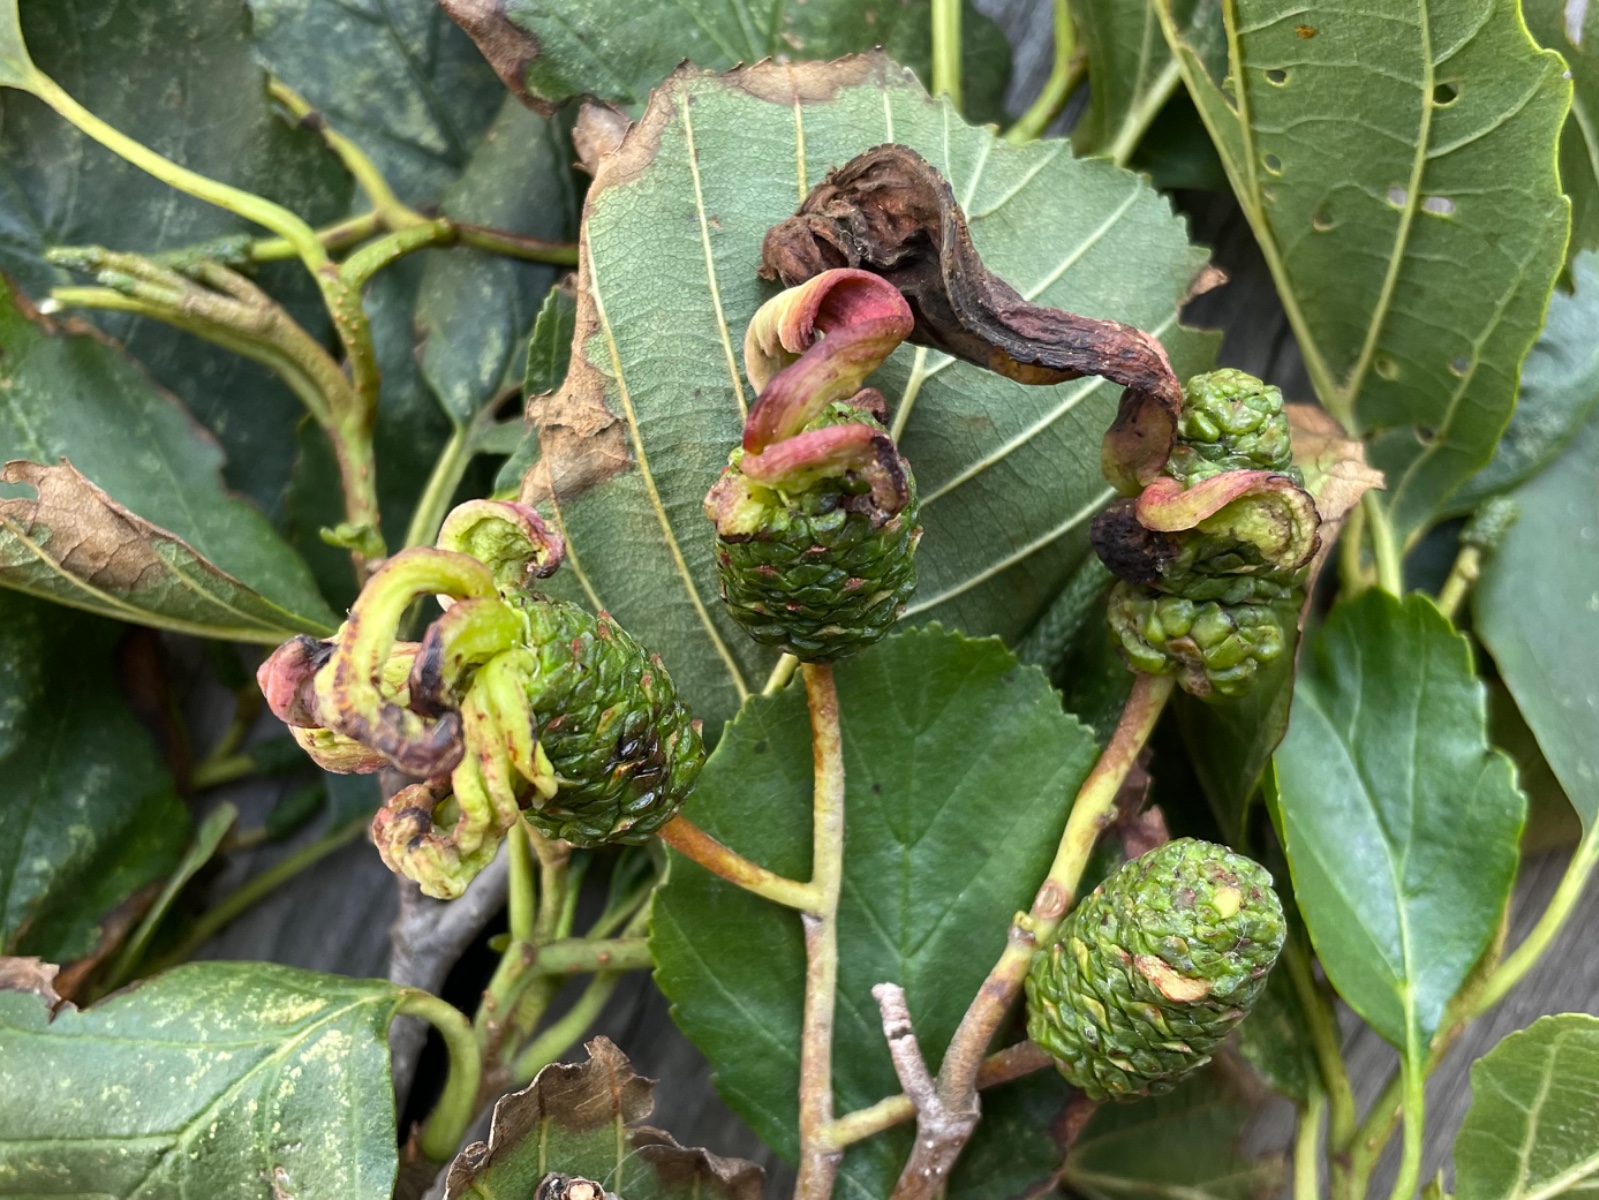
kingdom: Fungi
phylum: Ascomycota
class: Taphrinomycetes
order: Taphrinales
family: Taphrinaceae
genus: Taphrina
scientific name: Taphrina alni
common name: Alder tongue
